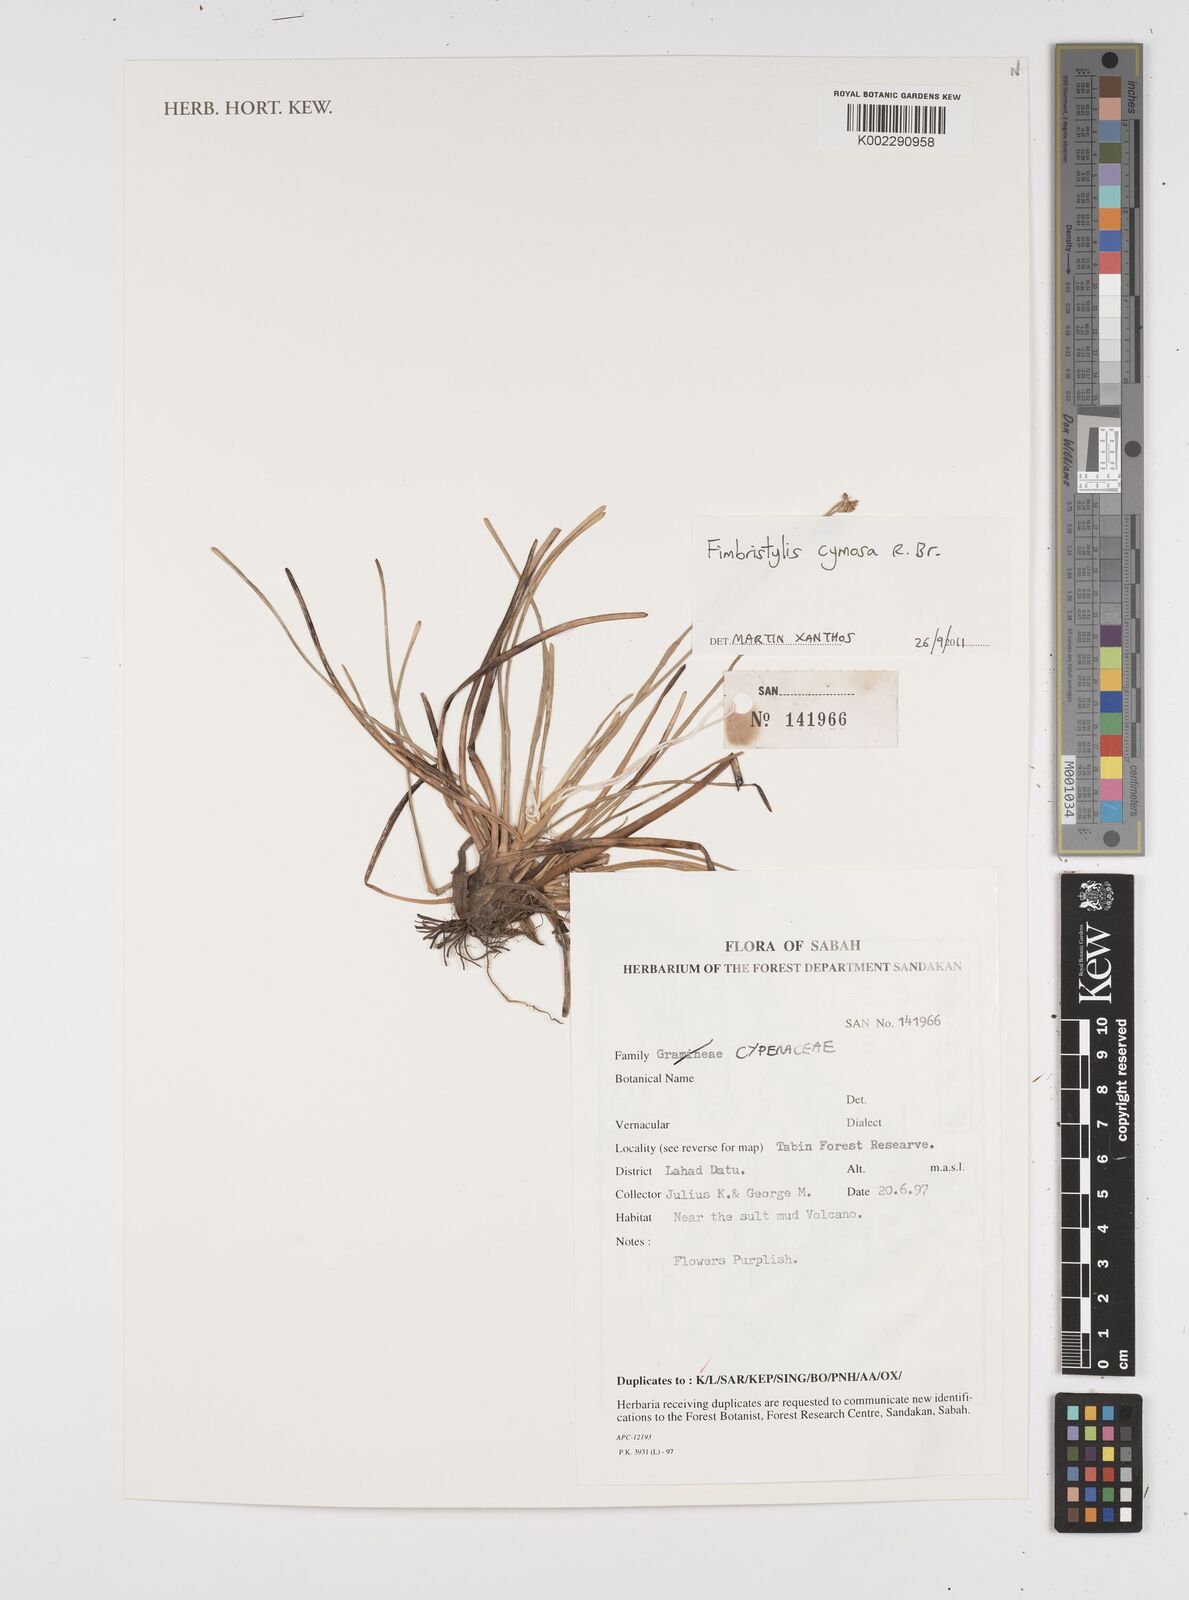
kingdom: Plantae
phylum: Tracheophyta
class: Liliopsida
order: Poales
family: Cyperaceae
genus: Fimbristylis
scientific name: Fimbristylis cymosa
